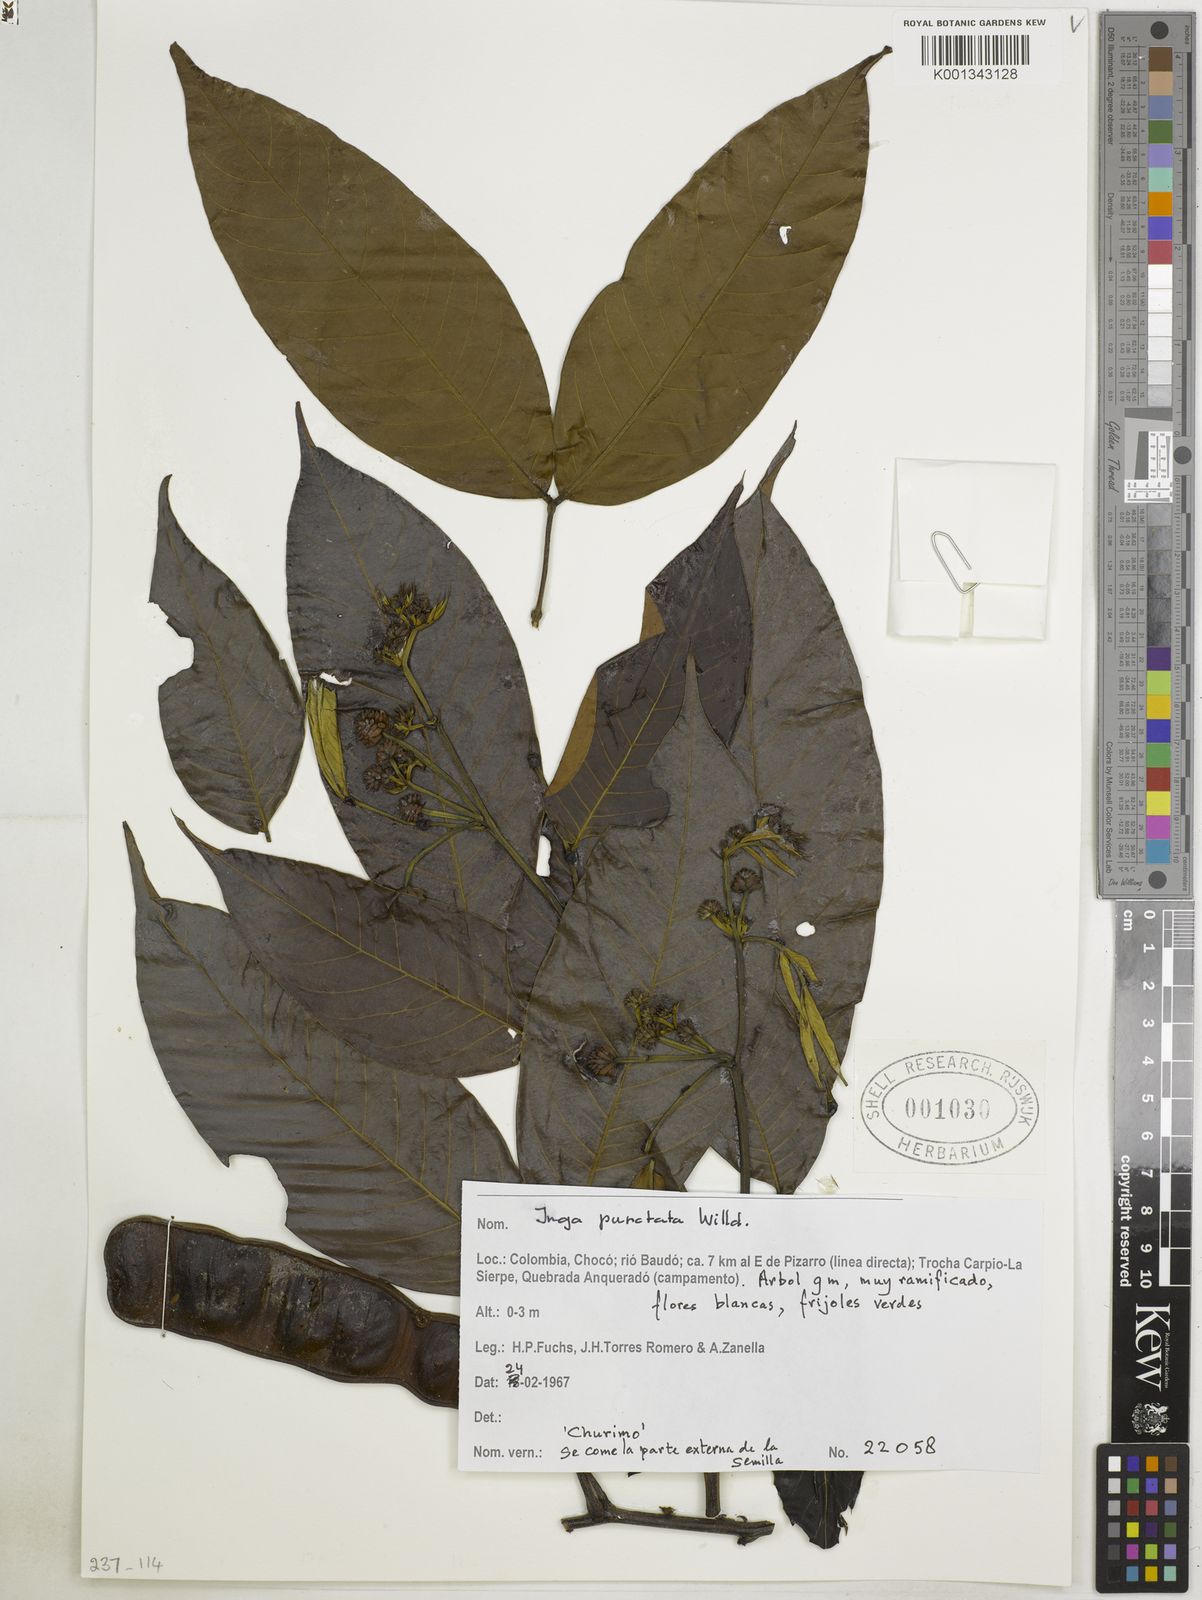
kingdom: Plantae
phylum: Tracheophyta
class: Magnoliopsida
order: Fabales
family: Fabaceae
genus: Inga
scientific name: Inga punctata
